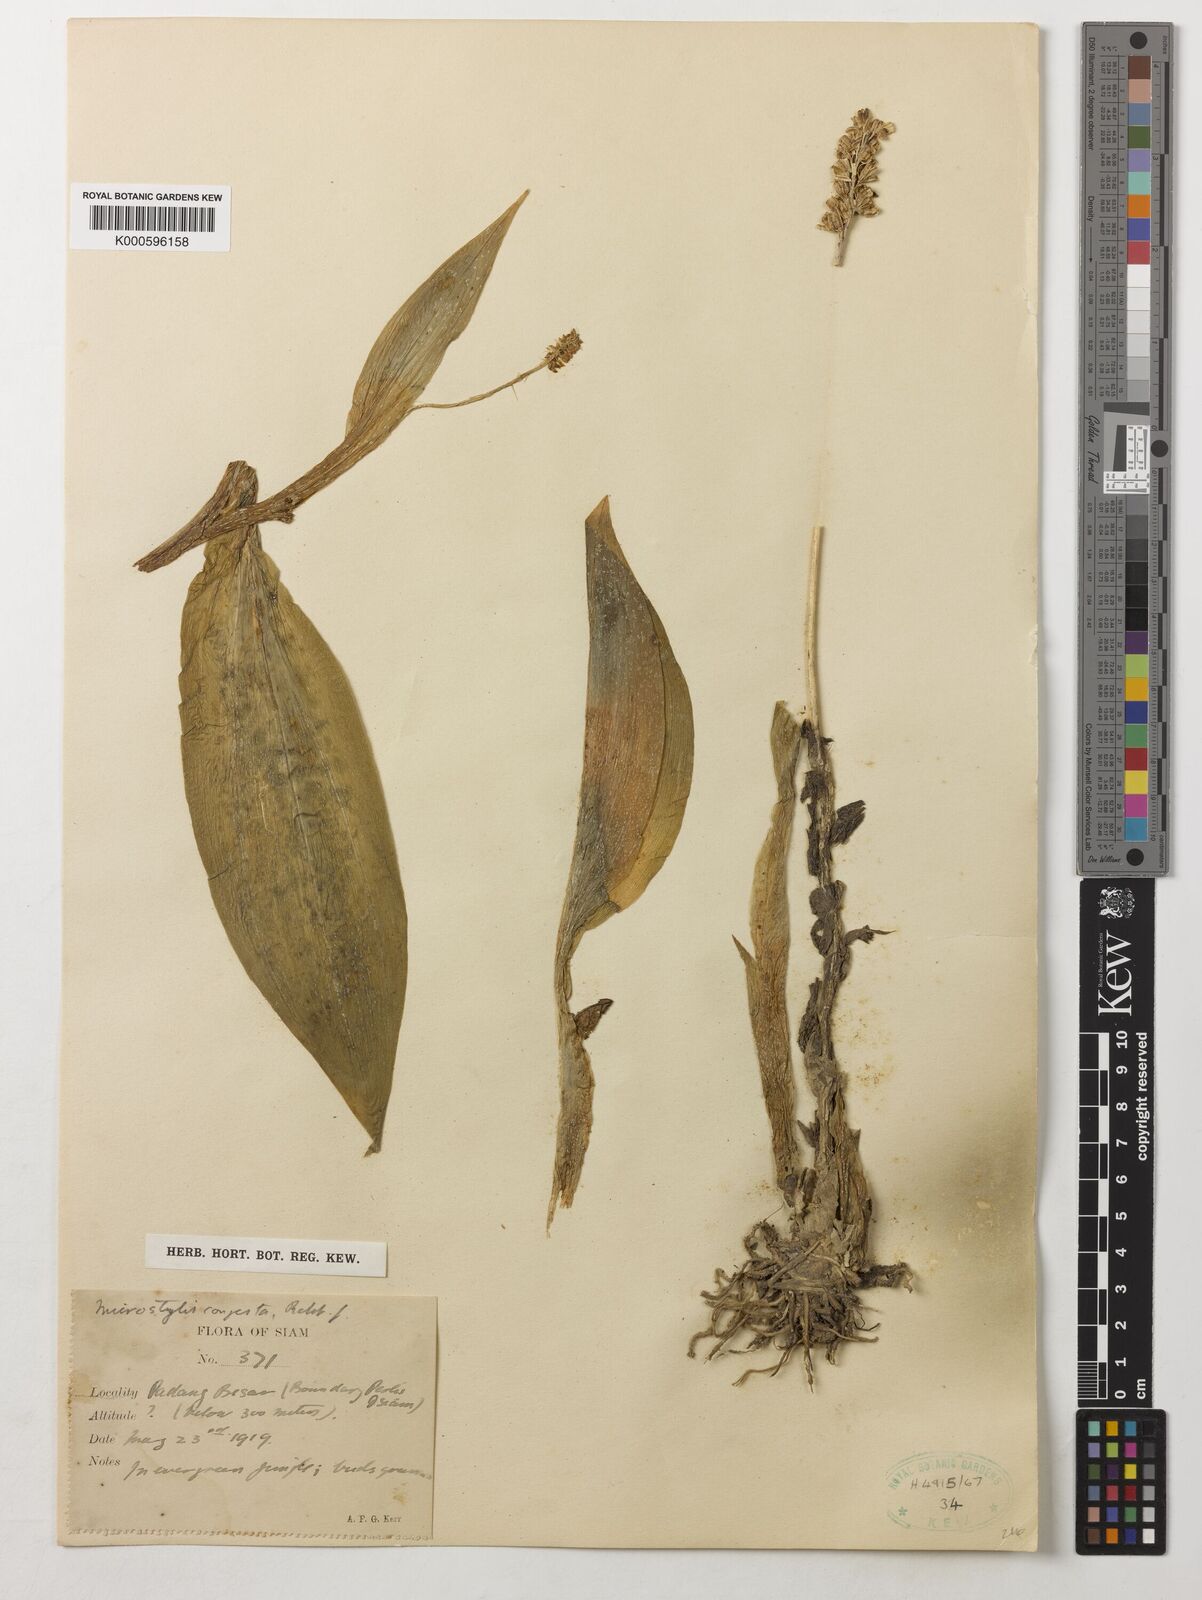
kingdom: Plantae
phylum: Tracheophyta
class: Liliopsida
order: Asparagales
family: Orchidaceae
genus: Dienia
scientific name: Dienia ophrydis
